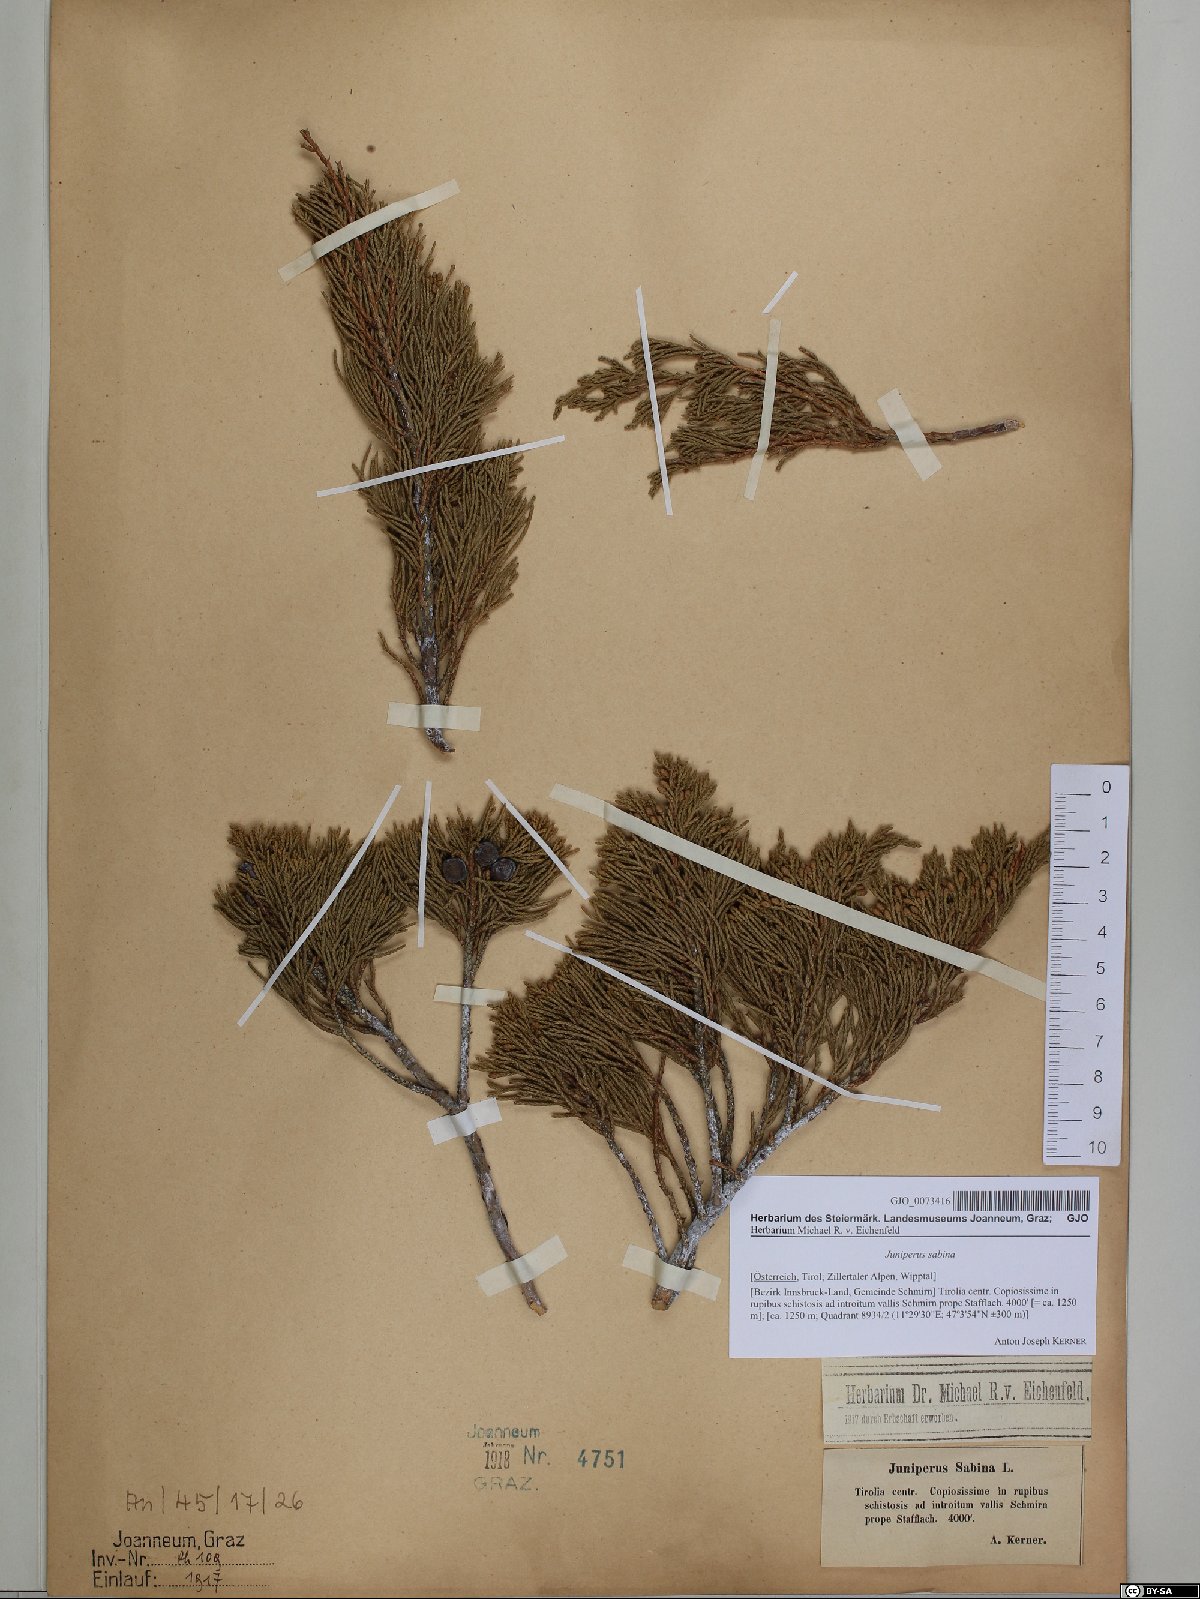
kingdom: Plantae
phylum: Tracheophyta
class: Pinopsida
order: Pinales
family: Cupressaceae
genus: Juniperus
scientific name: Juniperus sabina
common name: Savin
